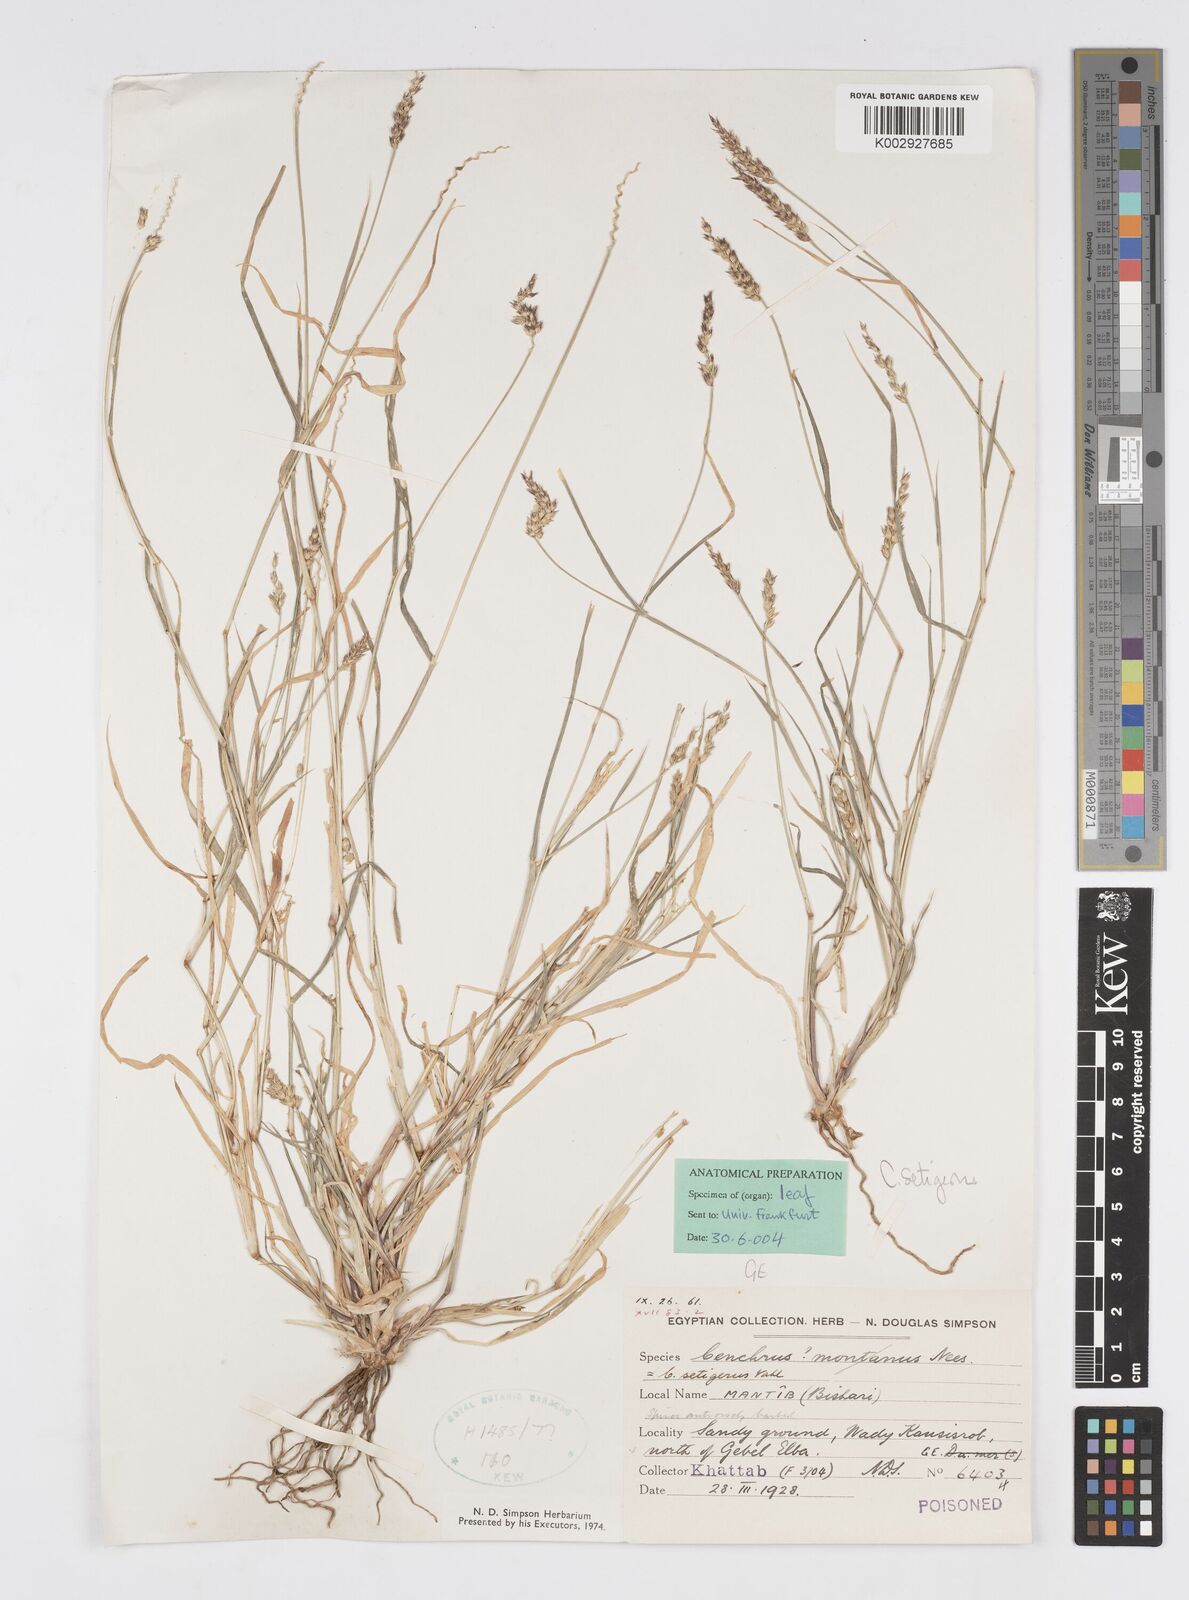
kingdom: Plantae
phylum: Tracheophyta
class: Liliopsida
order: Poales
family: Poaceae
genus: Cenchrus
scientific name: Cenchrus setigerus
